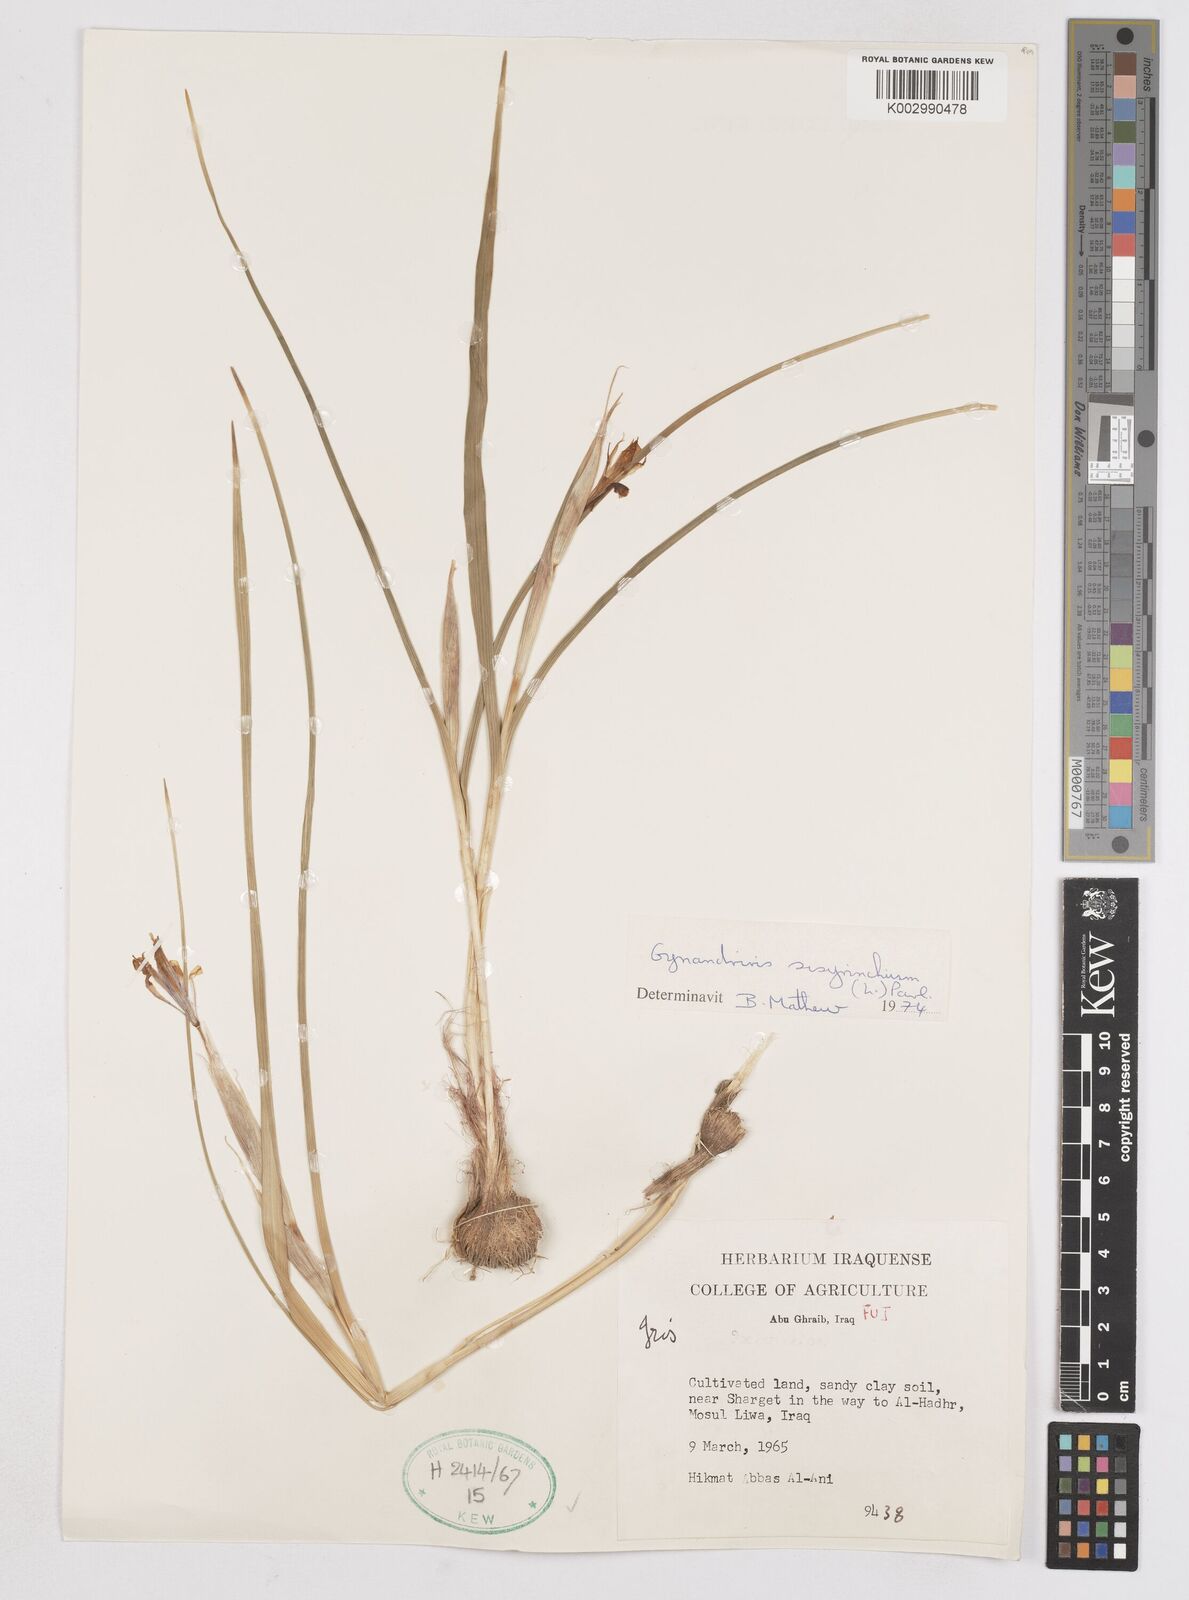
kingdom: Plantae
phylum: Tracheophyta
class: Liliopsida
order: Asparagales
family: Iridaceae
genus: Moraea
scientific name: Moraea sisyrinchium
